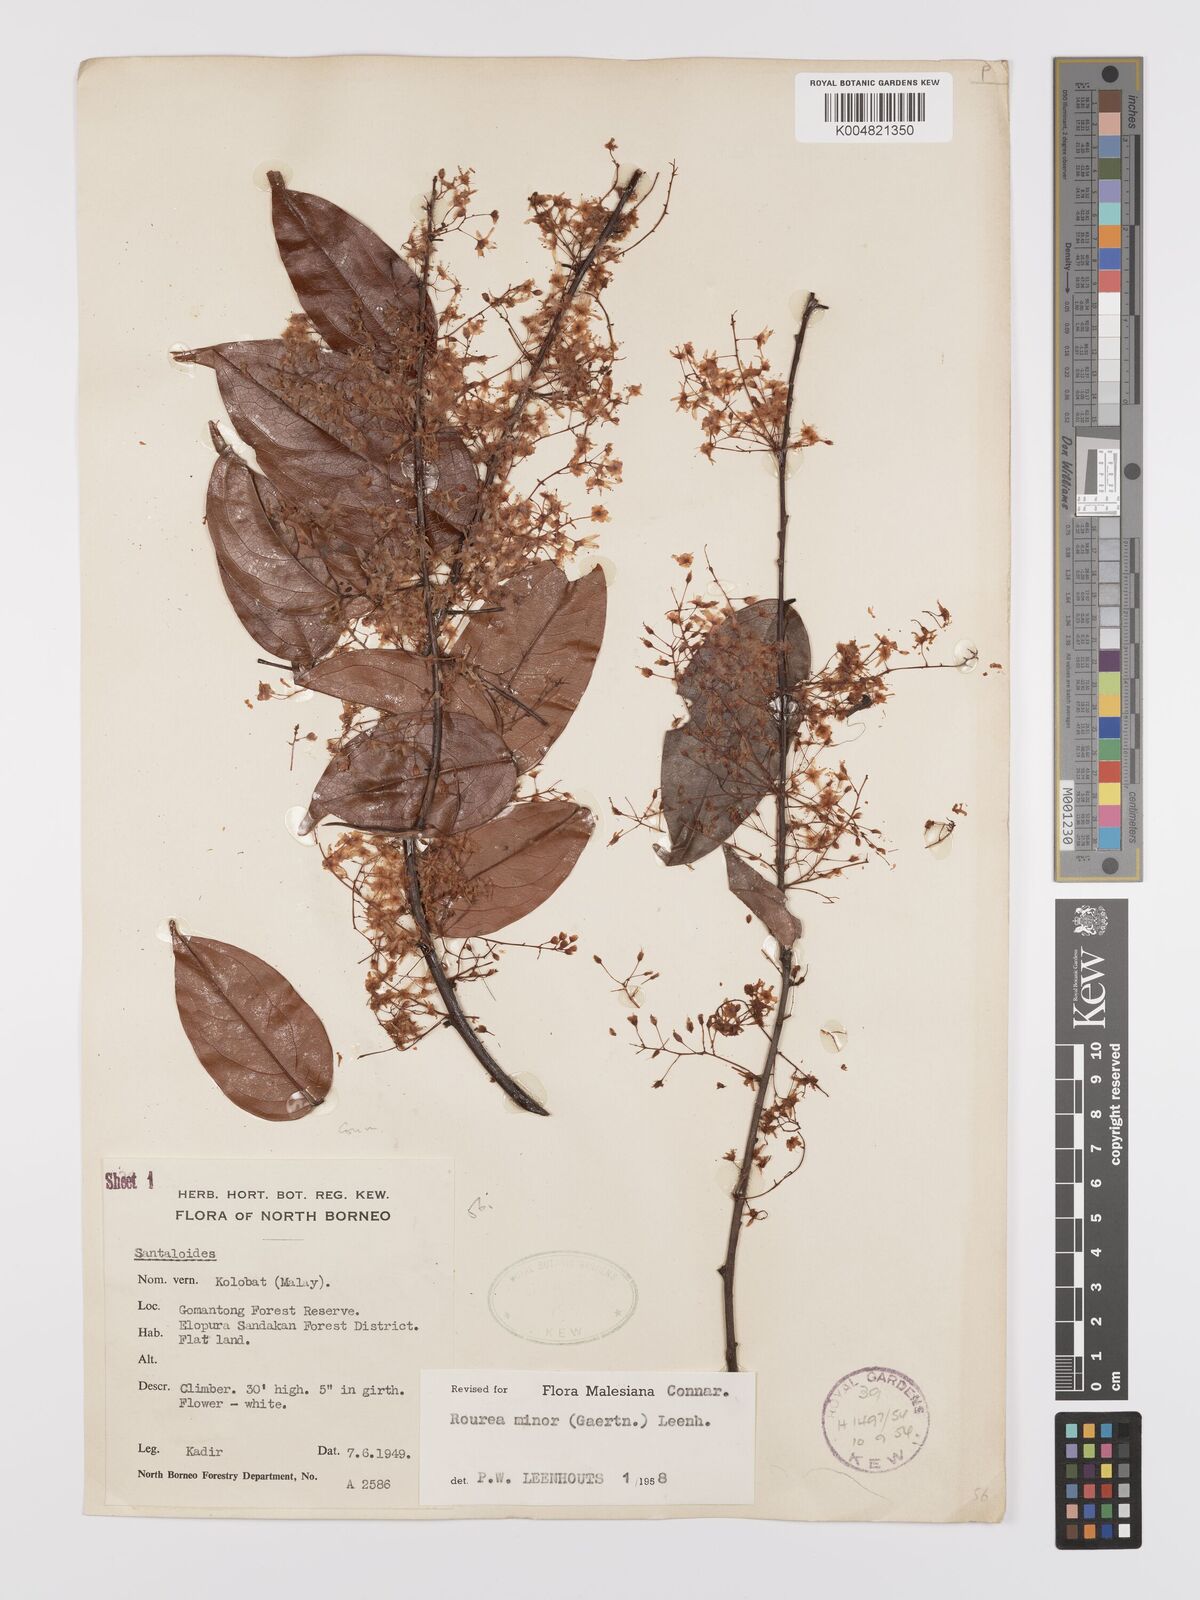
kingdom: Plantae
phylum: Tracheophyta
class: Magnoliopsida
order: Oxalidales
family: Connaraceae
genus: Rourea
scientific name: Rourea minor
